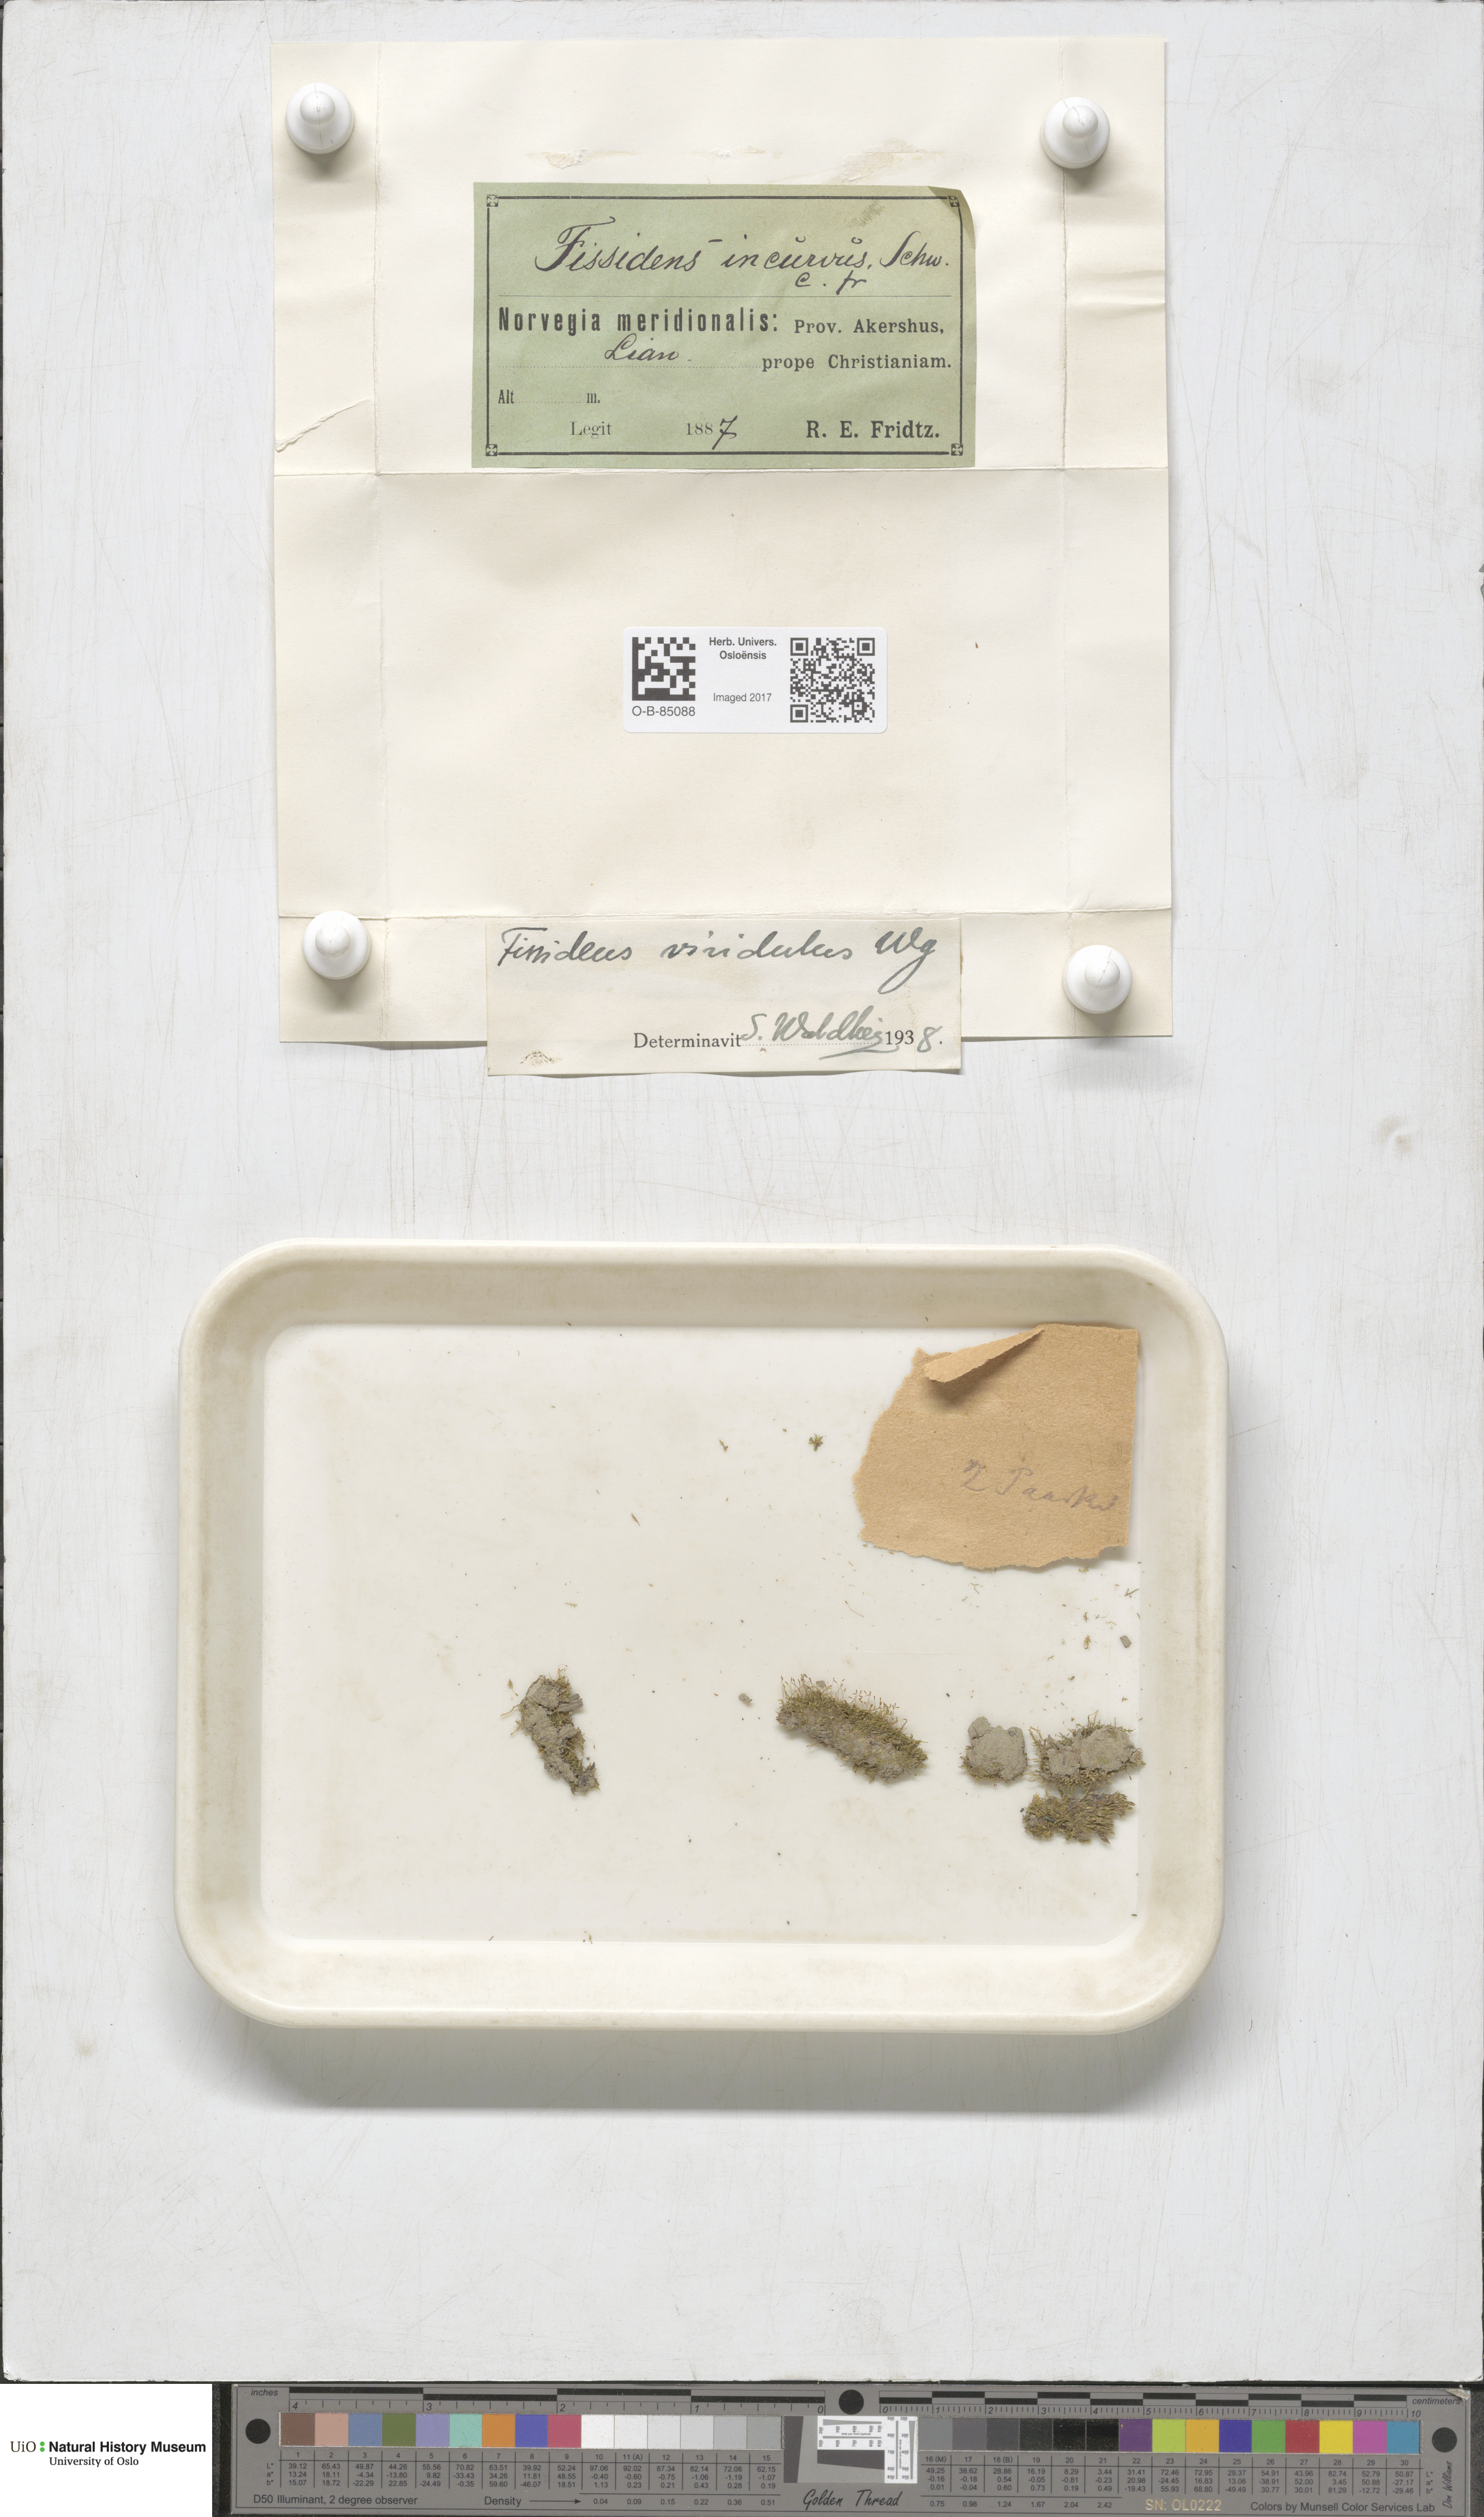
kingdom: Plantae
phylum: Bryophyta
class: Bryopsida
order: Dicranales
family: Fissidentaceae
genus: Fissidens
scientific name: Fissidens viridulus
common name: Green pocket-moss
